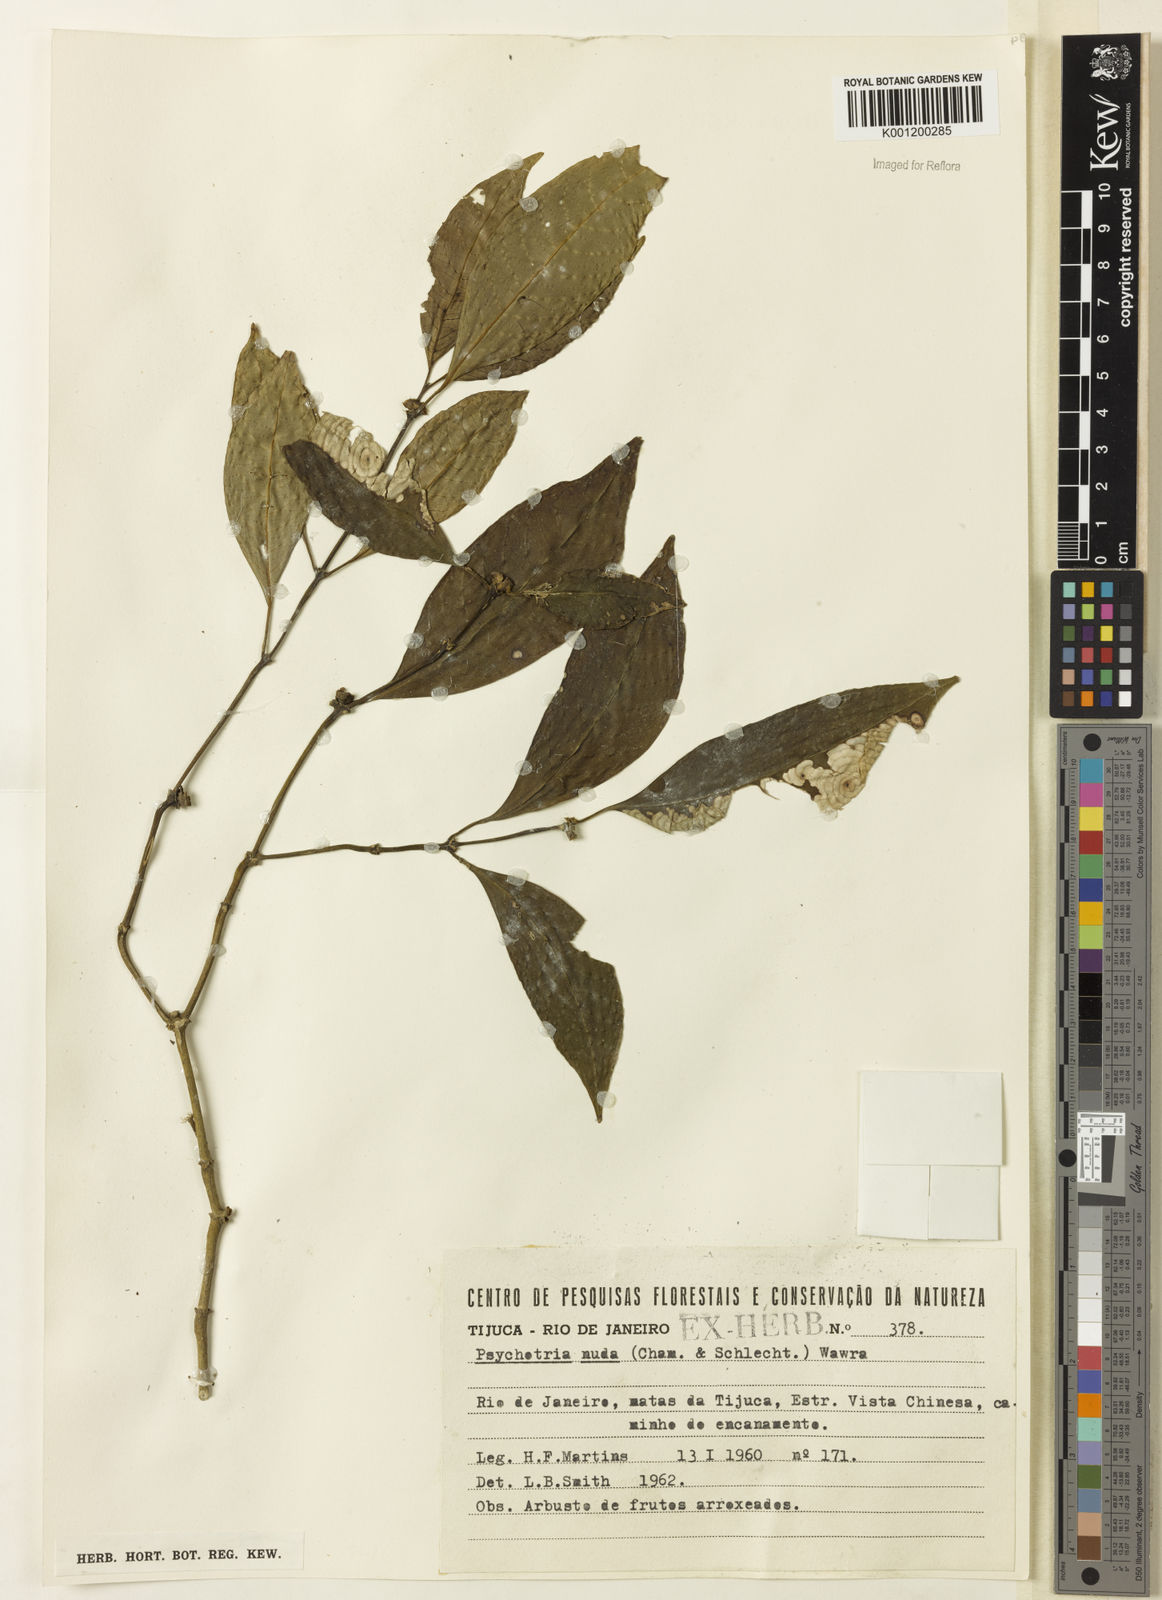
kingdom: Plantae
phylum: Tracheophyta
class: Magnoliopsida
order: Gentianales
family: Rubiaceae
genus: Psychotria
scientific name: Psychotria nuda
